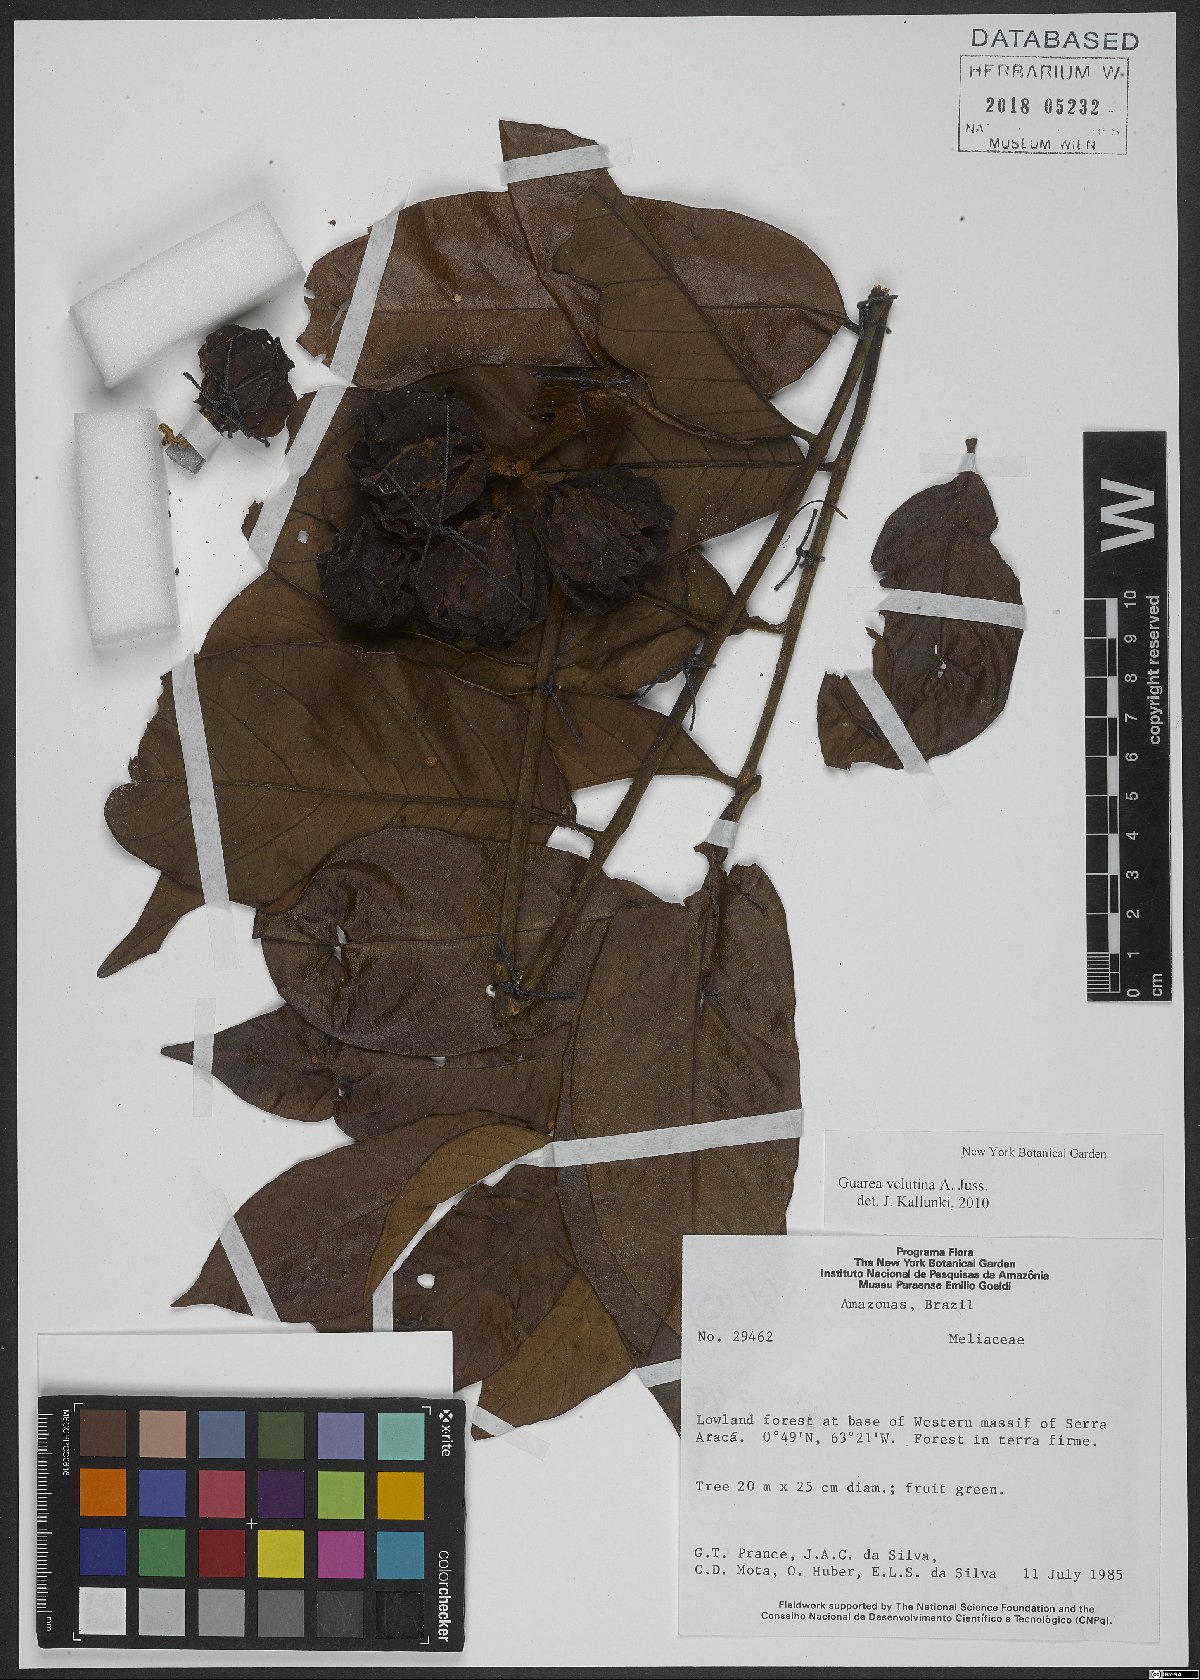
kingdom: Plantae
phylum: Tracheophyta
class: Magnoliopsida
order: Sapindales
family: Meliaceae
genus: Guarea
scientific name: Guarea velutina
